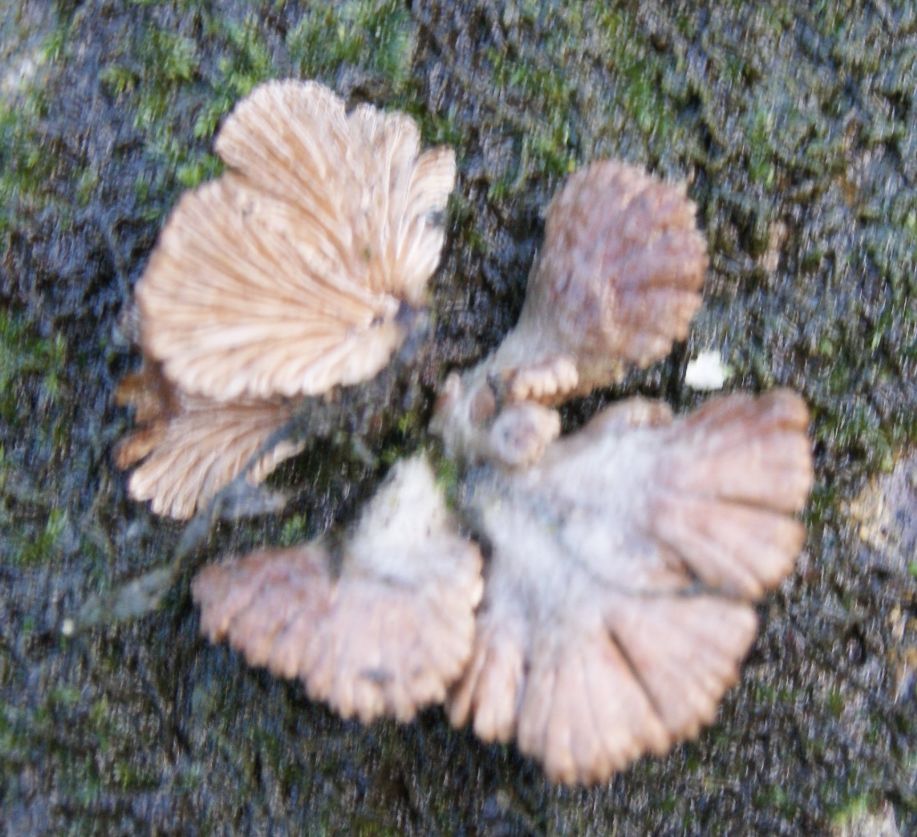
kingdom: Fungi
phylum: Basidiomycota
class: Agaricomycetes
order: Agaricales
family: Schizophyllaceae
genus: Schizophyllum
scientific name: Schizophyllum commune
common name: kløvblad
